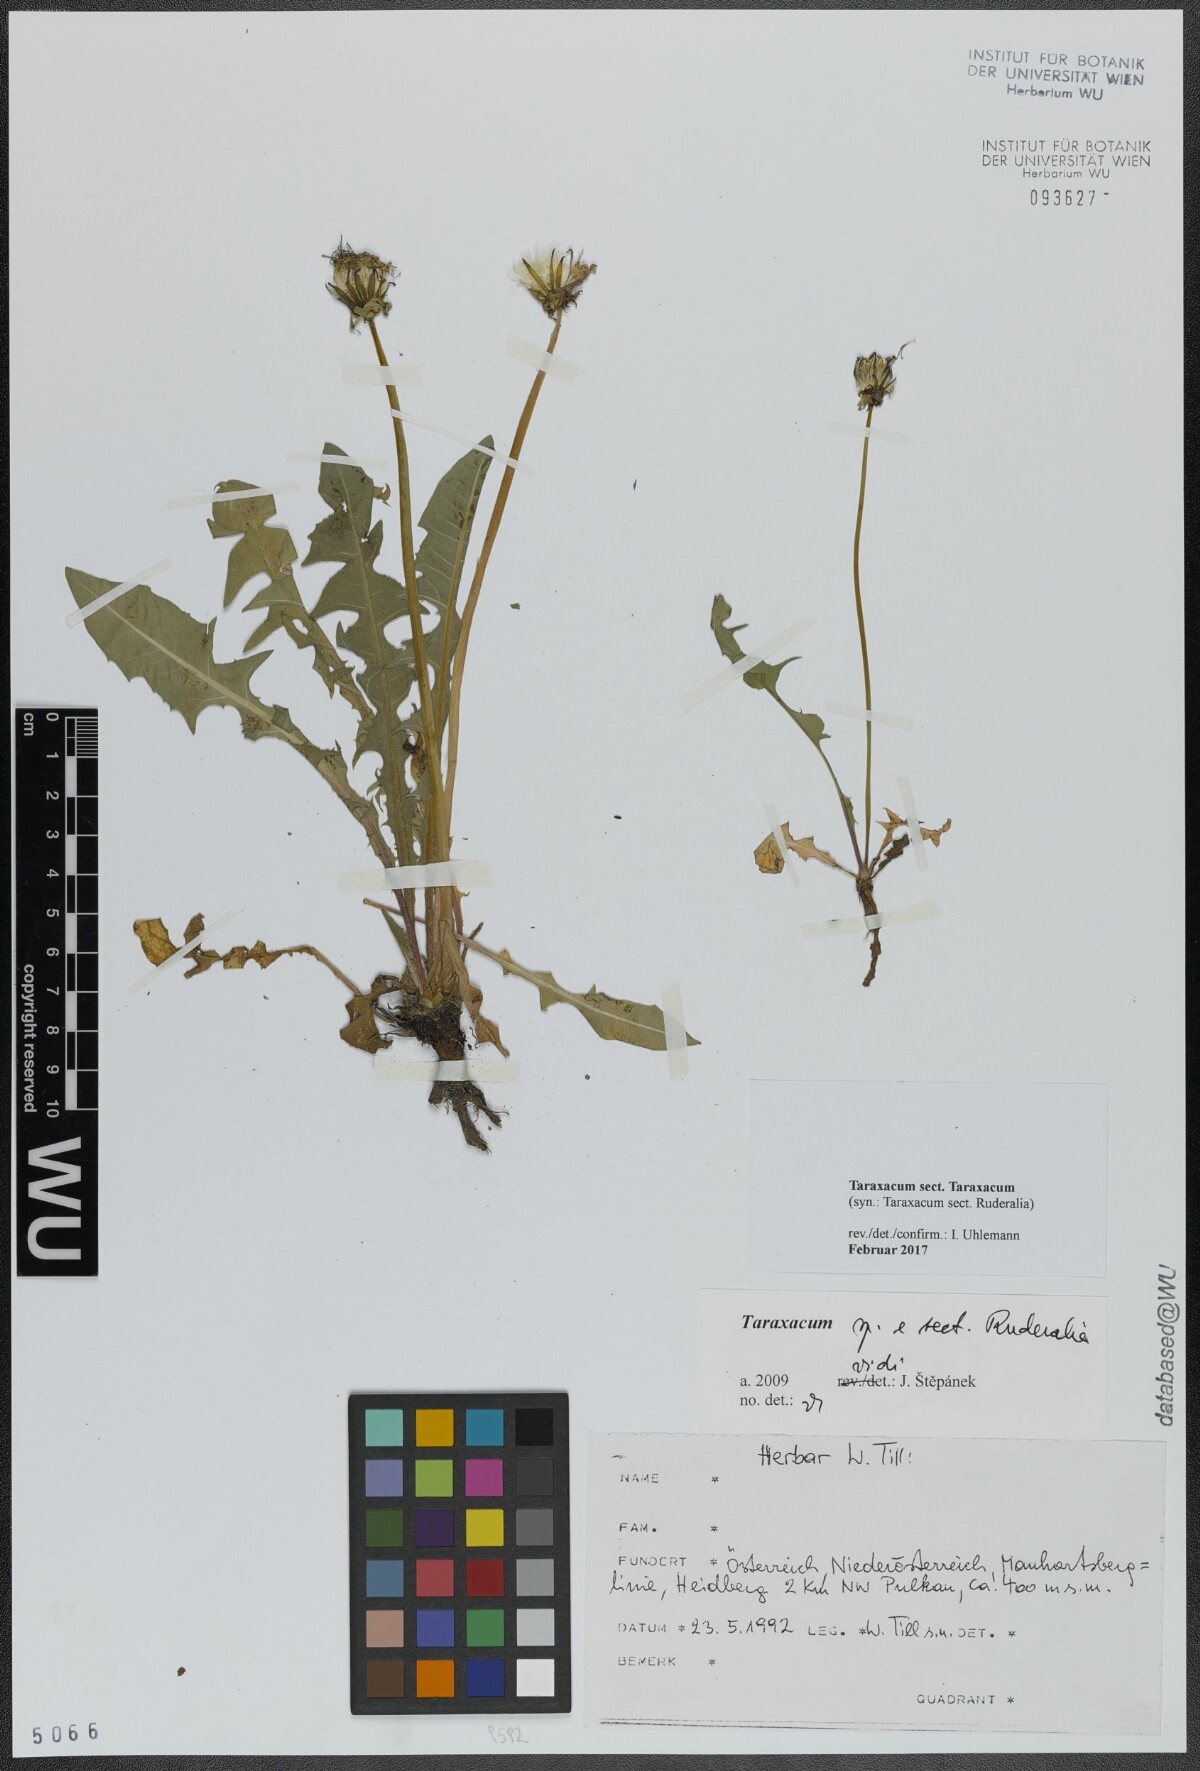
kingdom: Plantae
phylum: Tracheophyta
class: Magnoliopsida
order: Asterales
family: Asteraceae
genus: Taraxacum
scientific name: Taraxacum
